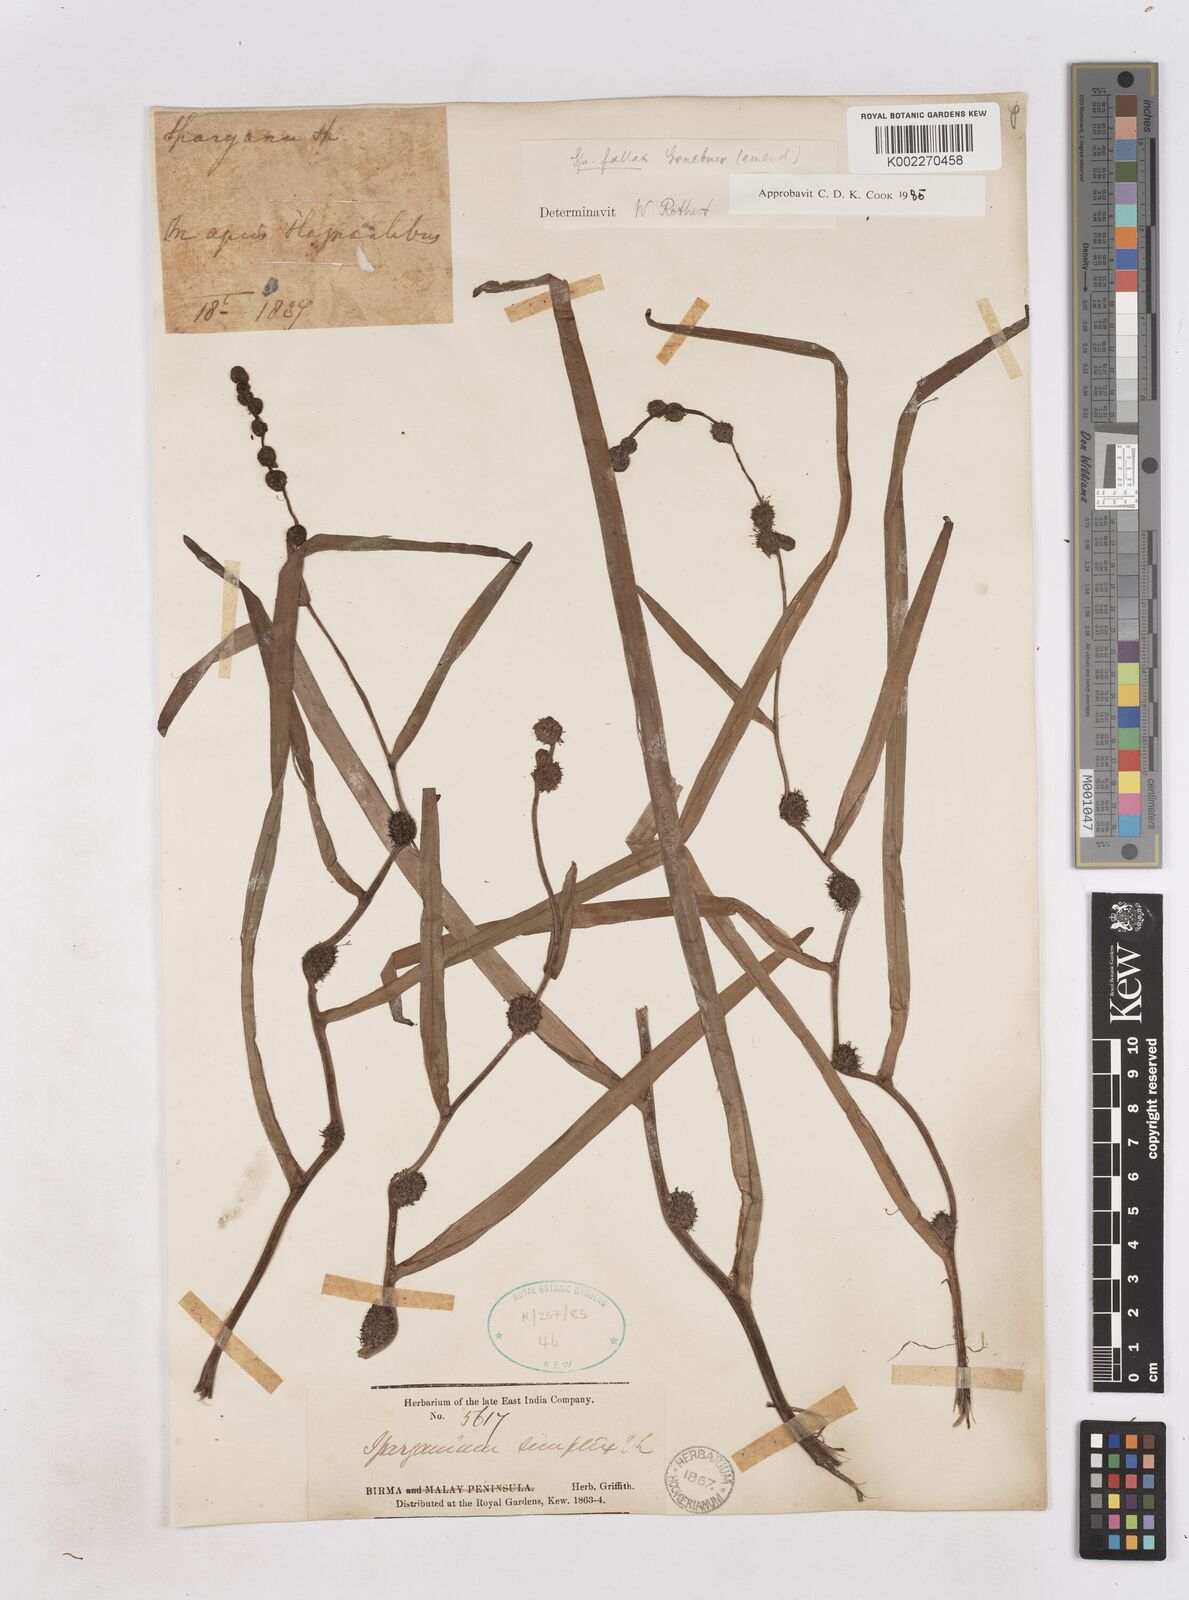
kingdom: Plantae
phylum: Tracheophyta
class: Liliopsida
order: Poales
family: Typhaceae
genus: Sparganium
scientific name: Sparganium fallax
